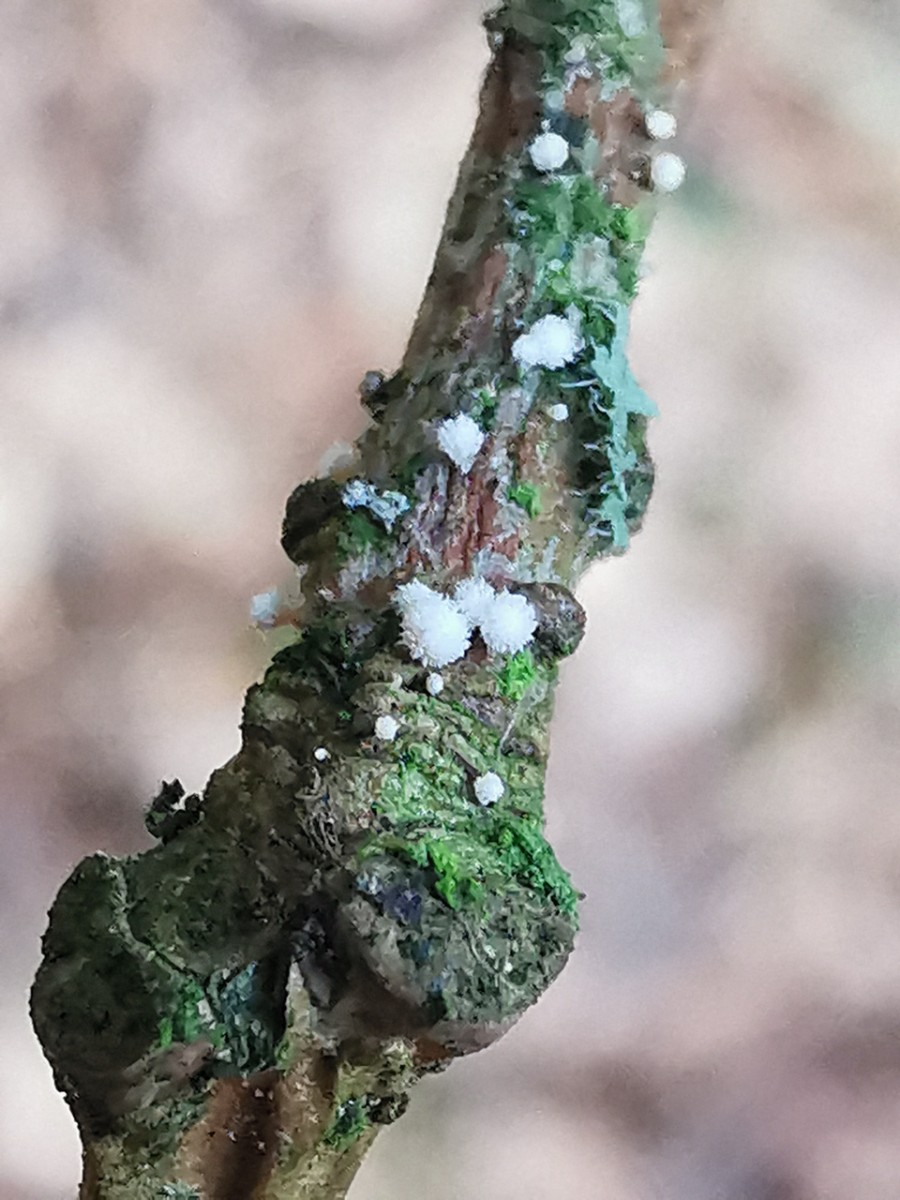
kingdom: Fungi
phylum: Ascomycota
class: Leotiomycetes
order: Helotiales
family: Lachnaceae
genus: Capitotricha
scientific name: Capitotricha bicolor
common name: prægtig frynseskive
